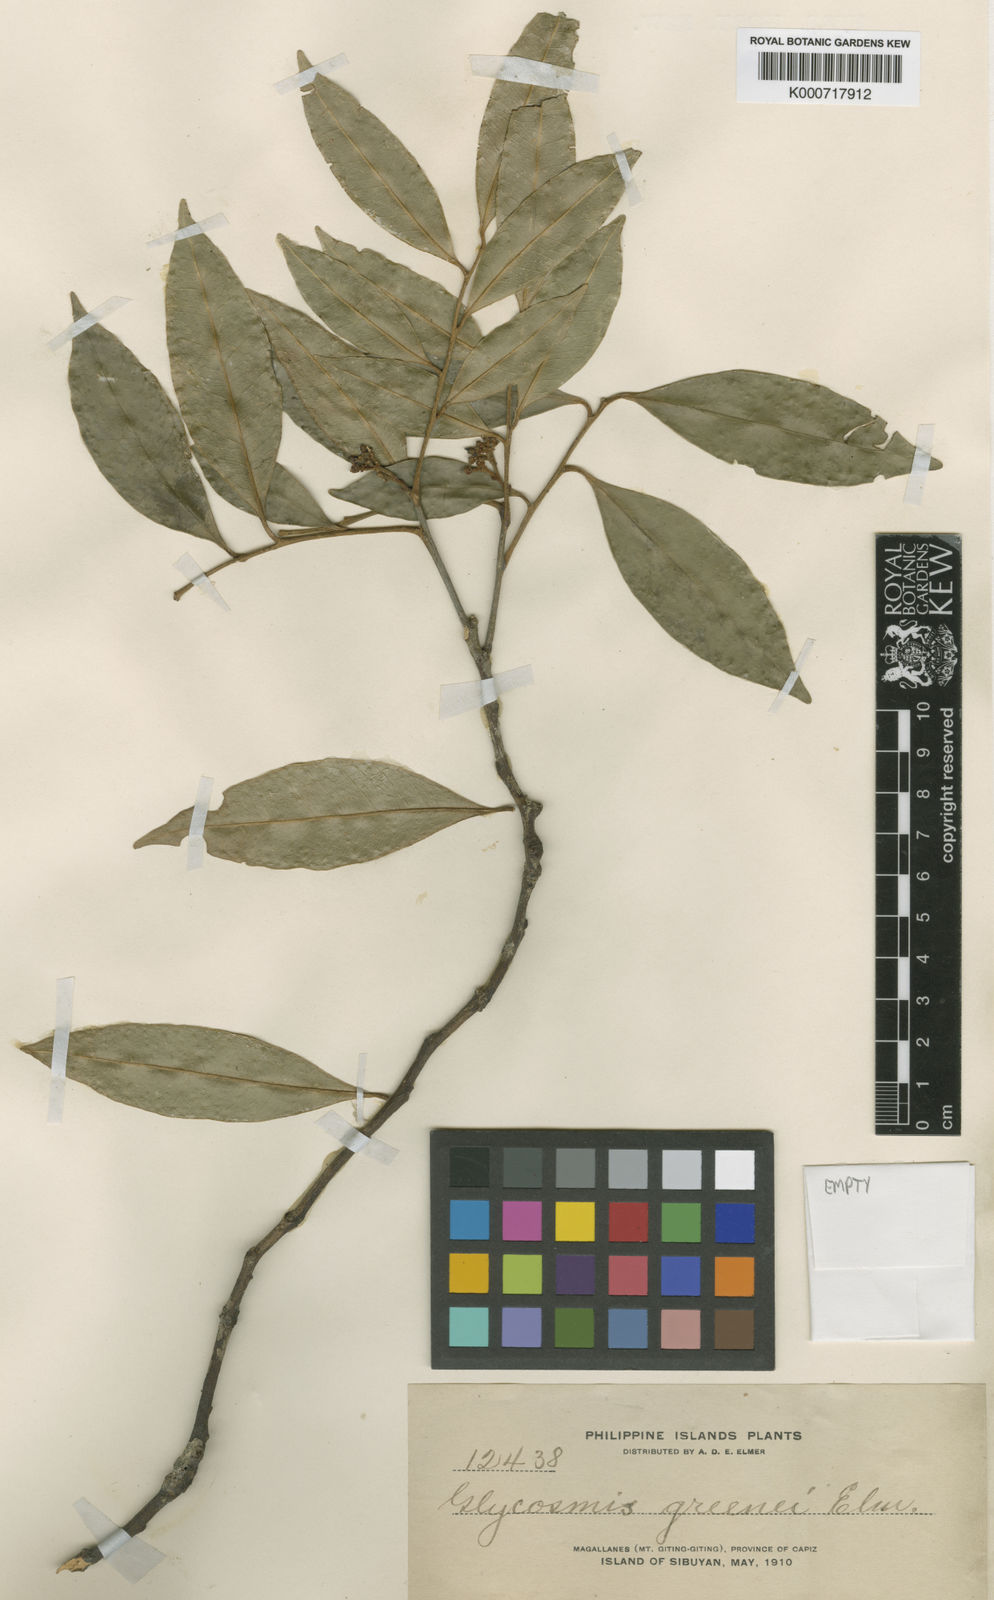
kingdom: Plantae
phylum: Tracheophyta
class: Magnoliopsida
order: Sapindales
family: Rutaceae
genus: Glycosmis
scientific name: Glycosmis greenei
